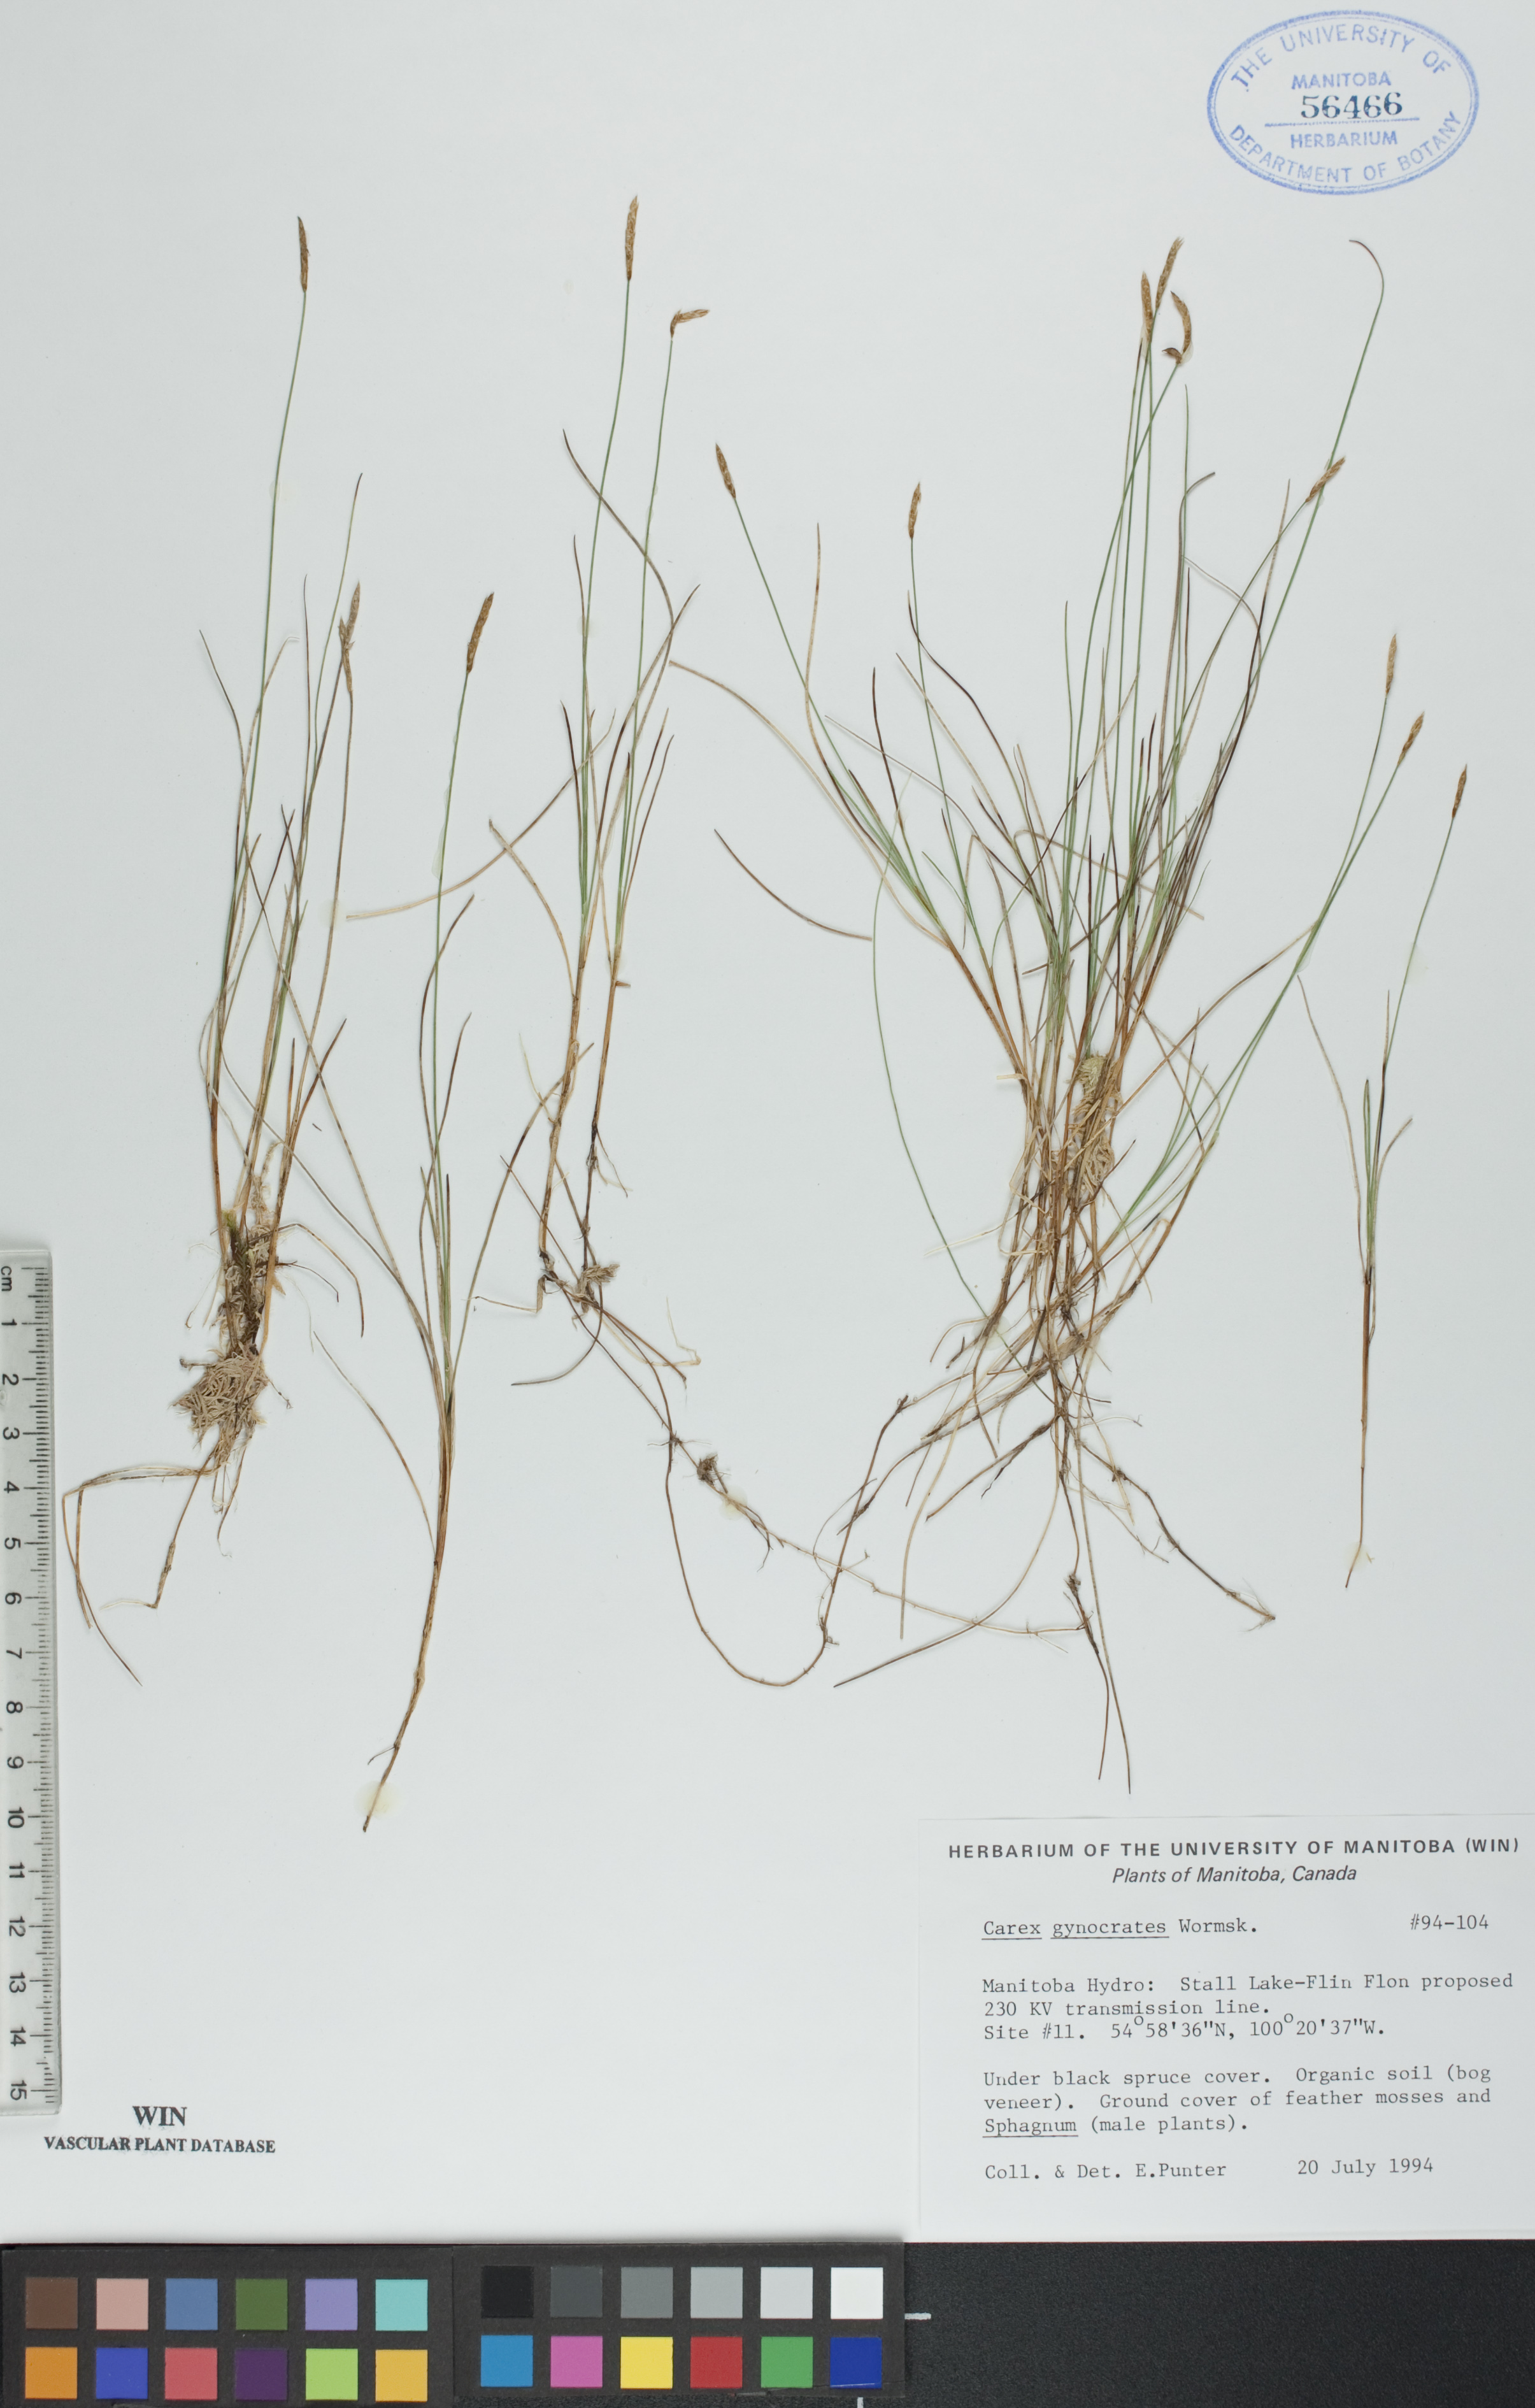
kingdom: Plantae
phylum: Tracheophyta
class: Liliopsida
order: Poales
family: Cyperaceae
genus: Carex
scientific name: Carex nardina
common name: Nard sedge
